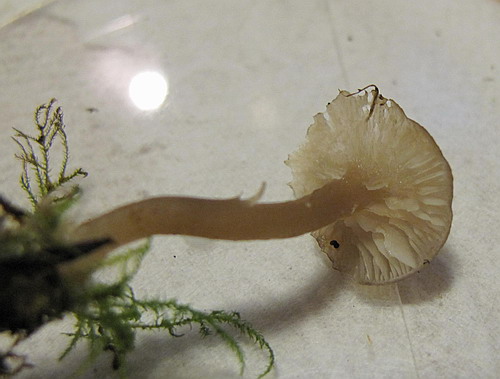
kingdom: Fungi
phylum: Basidiomycota
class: Agaricomycetes
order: Agaricales
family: Tricholomataceae
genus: Gamundia
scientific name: Gamundia striatula
